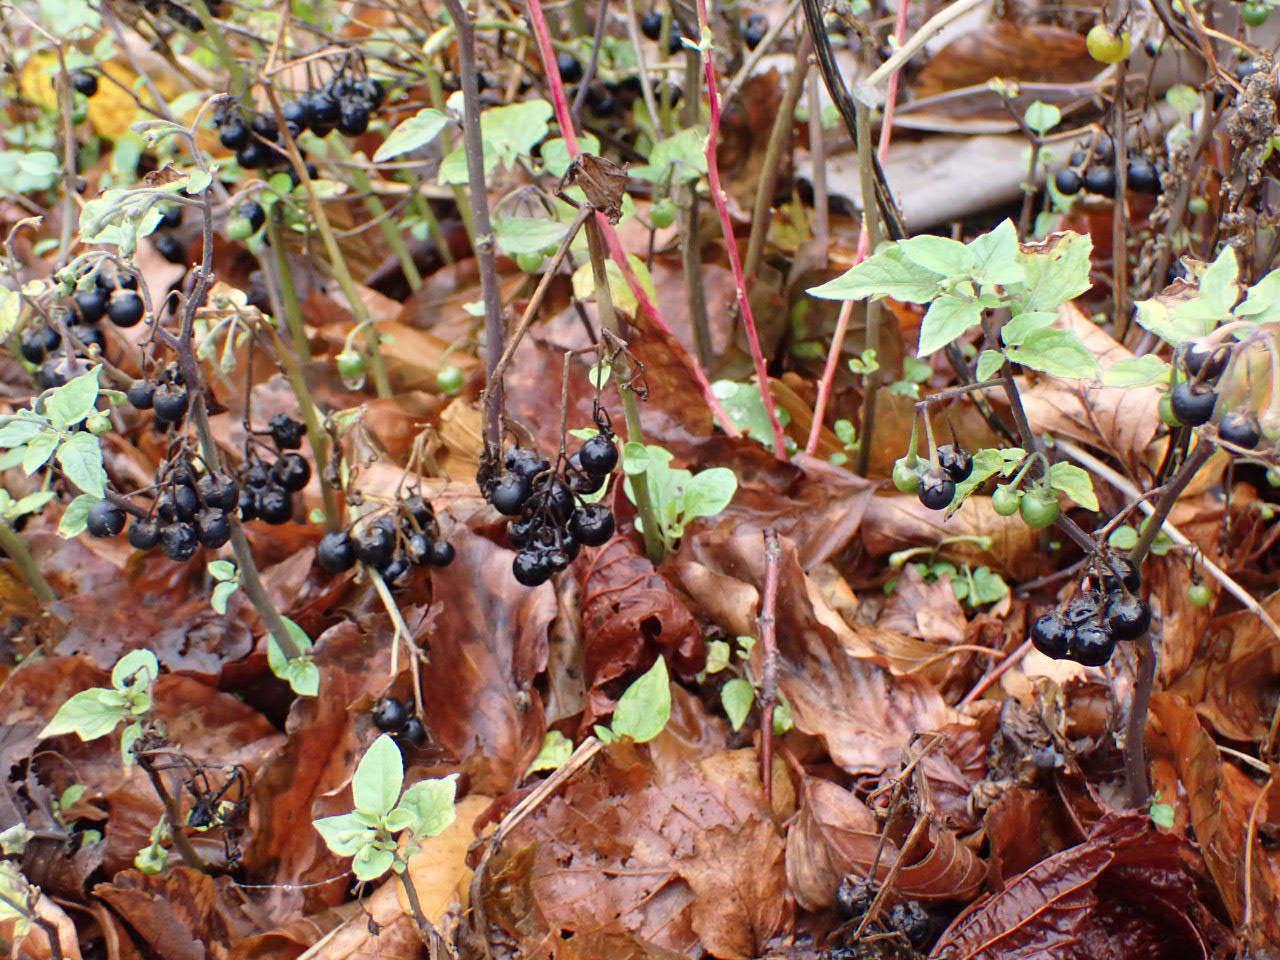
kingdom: Plantae
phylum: Tracheophyta
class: Magnoliopsida
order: Solanales
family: Solanaceae
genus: Solanum
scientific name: Solanum nigrum
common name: Sort natskygge
